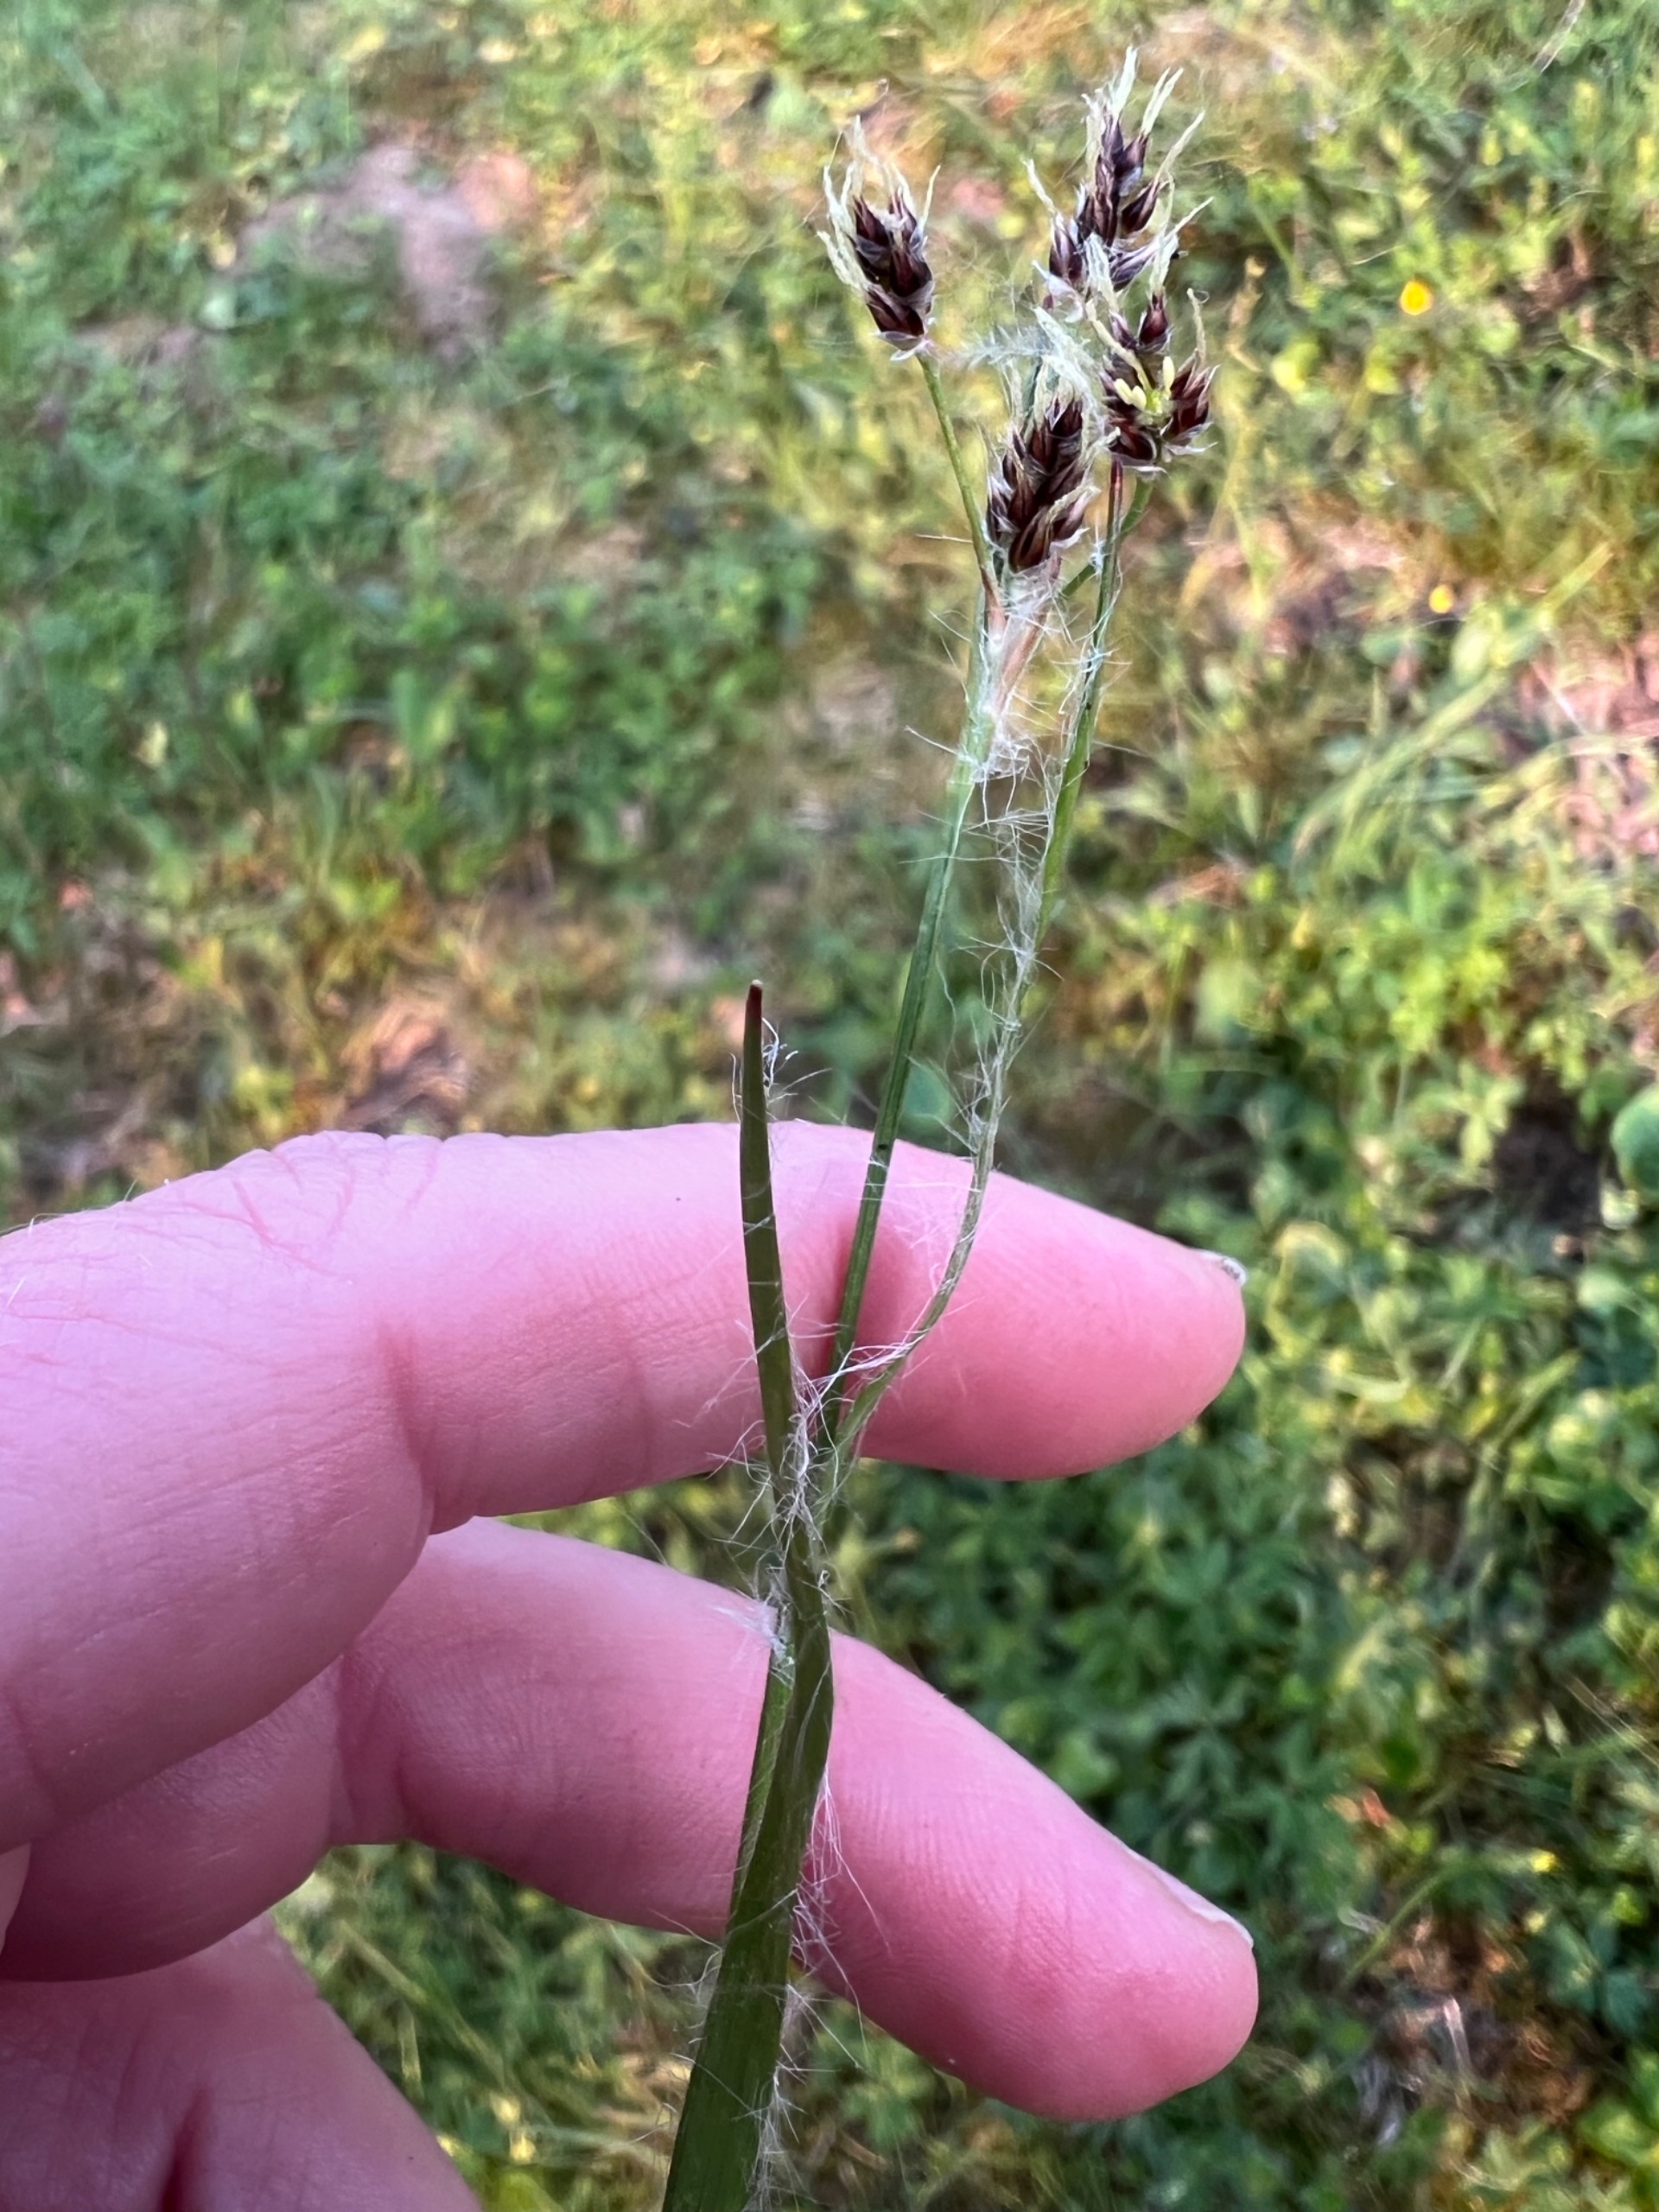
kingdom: Plantae
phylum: Tracheophyta
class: Liliopsida
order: Poales
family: Juncaceae
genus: Luzula
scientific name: Luzula campestris
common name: Mark-frytle
